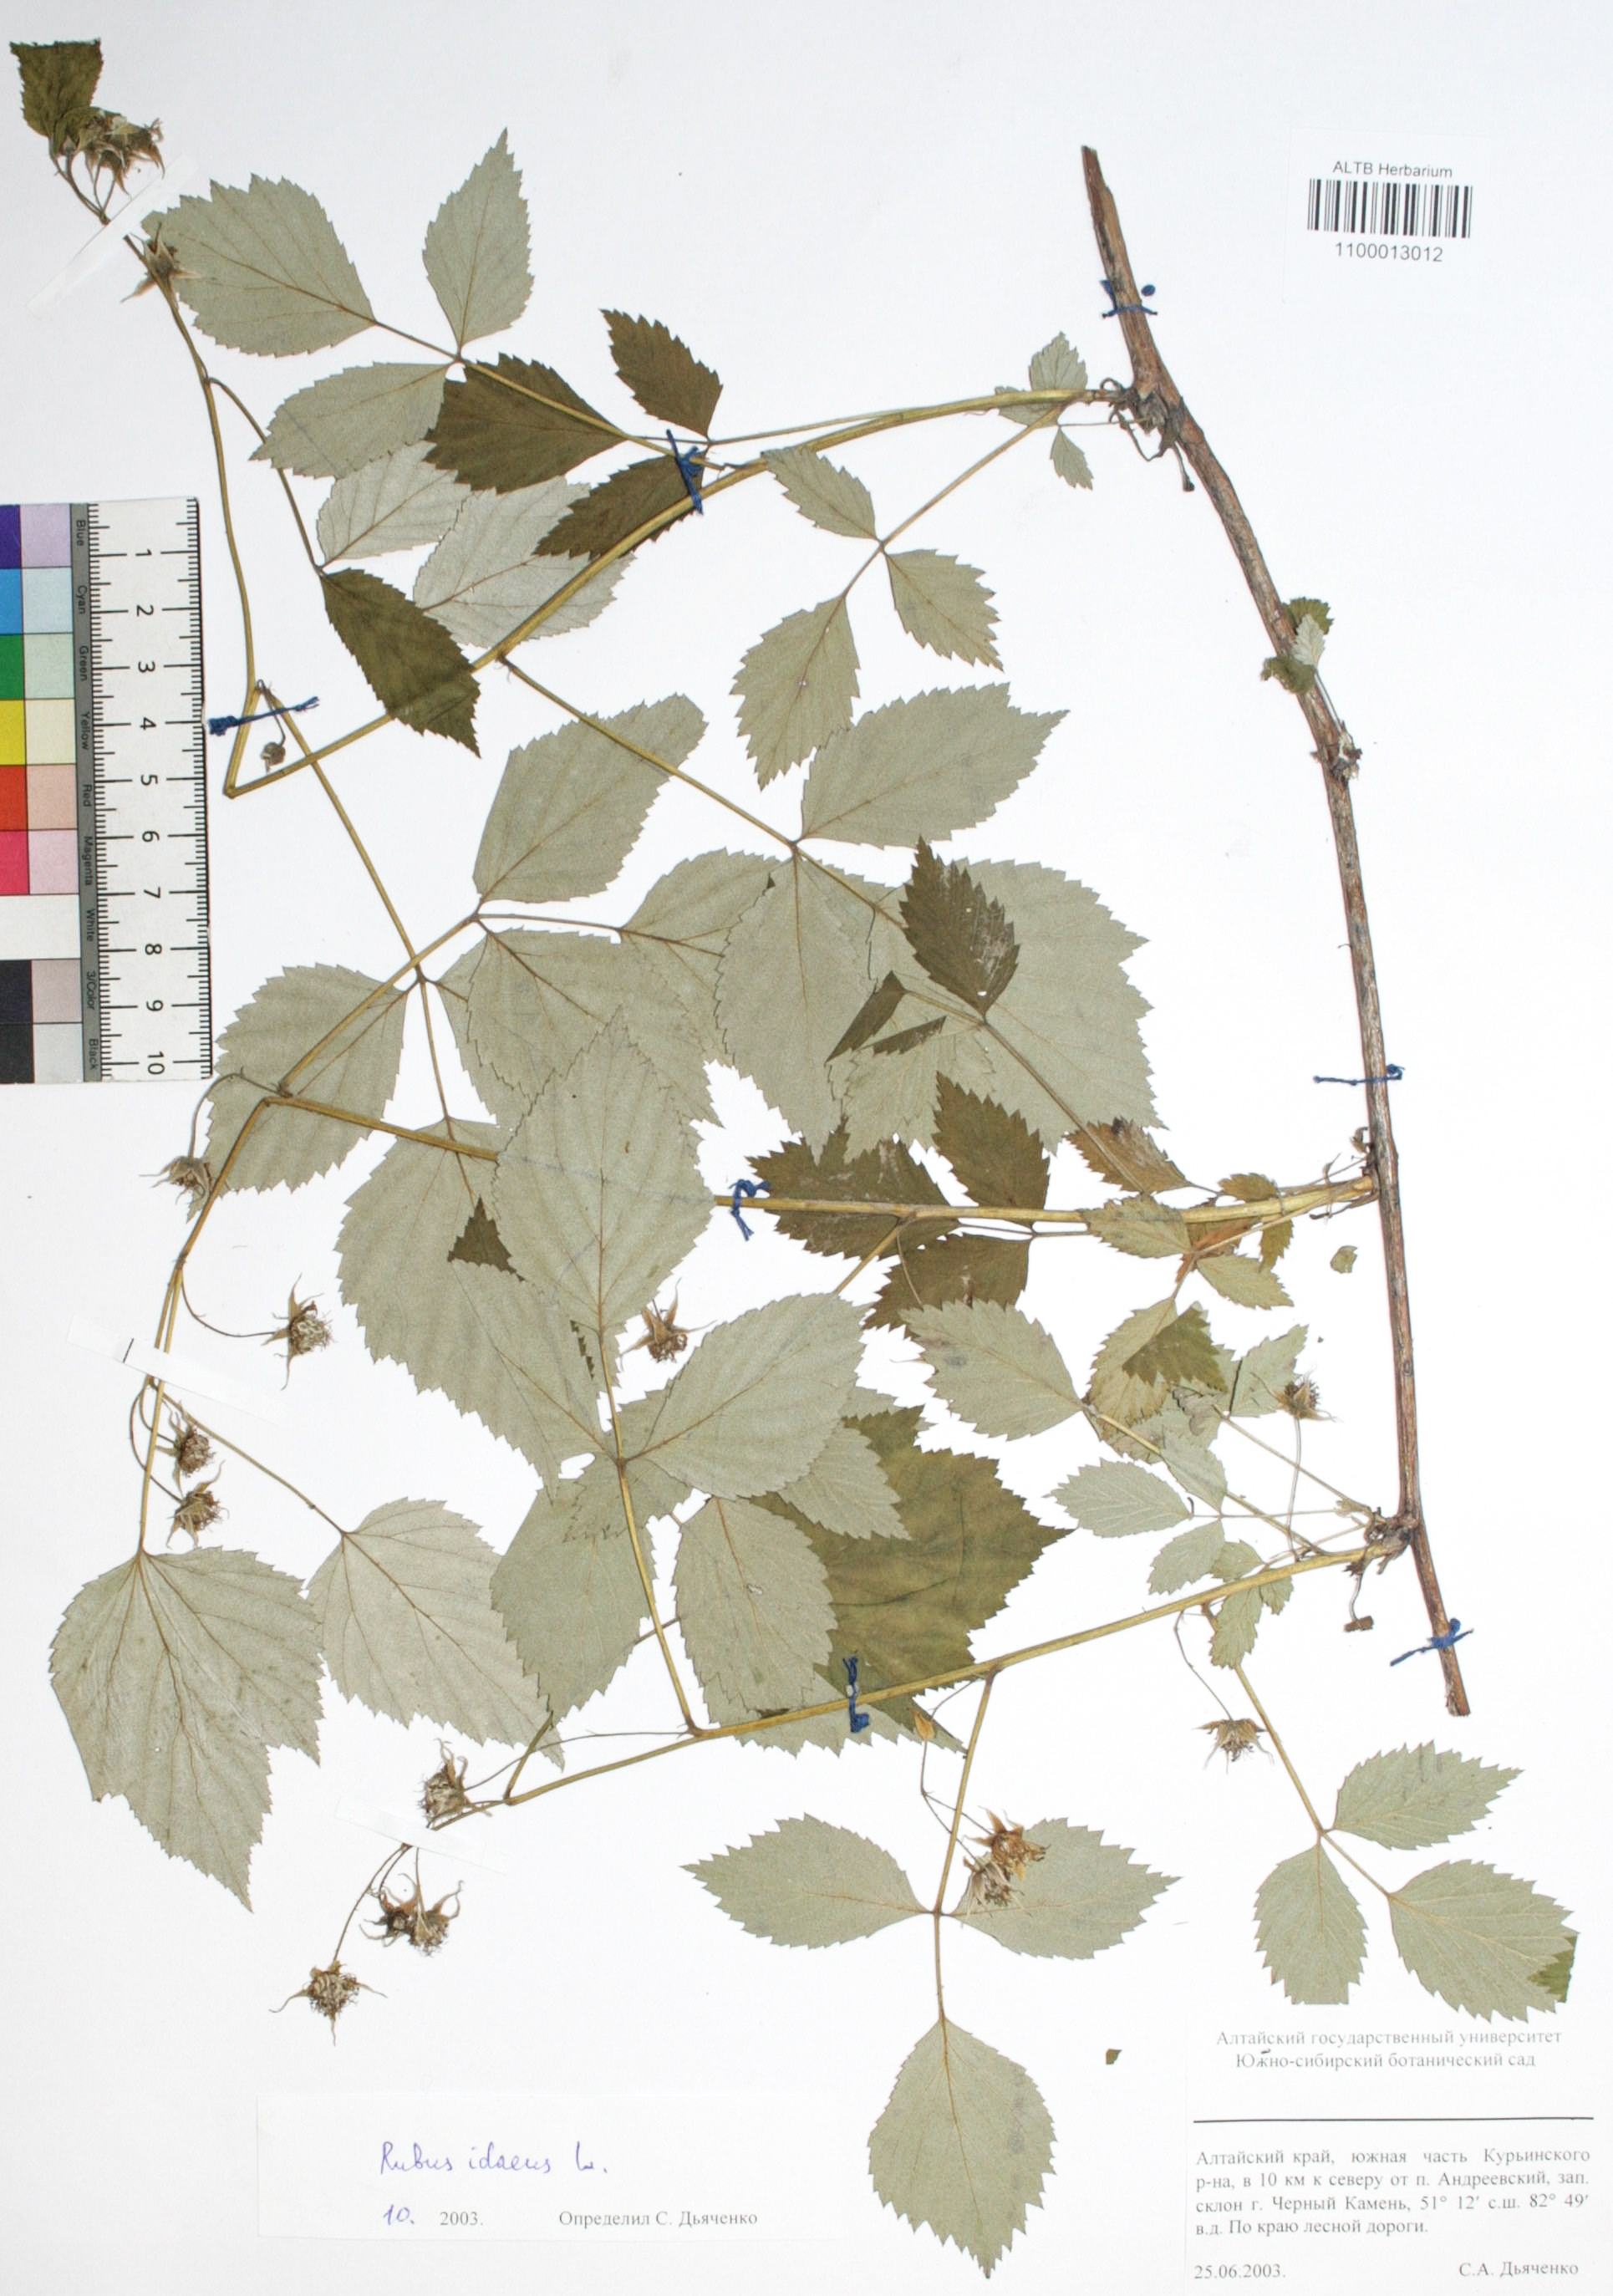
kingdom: Plantae
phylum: Tracheophyta
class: Magnoliopsida
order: Rosales
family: Rosaceae
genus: Rubus
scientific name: Rubus idaeus
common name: Raspberry
